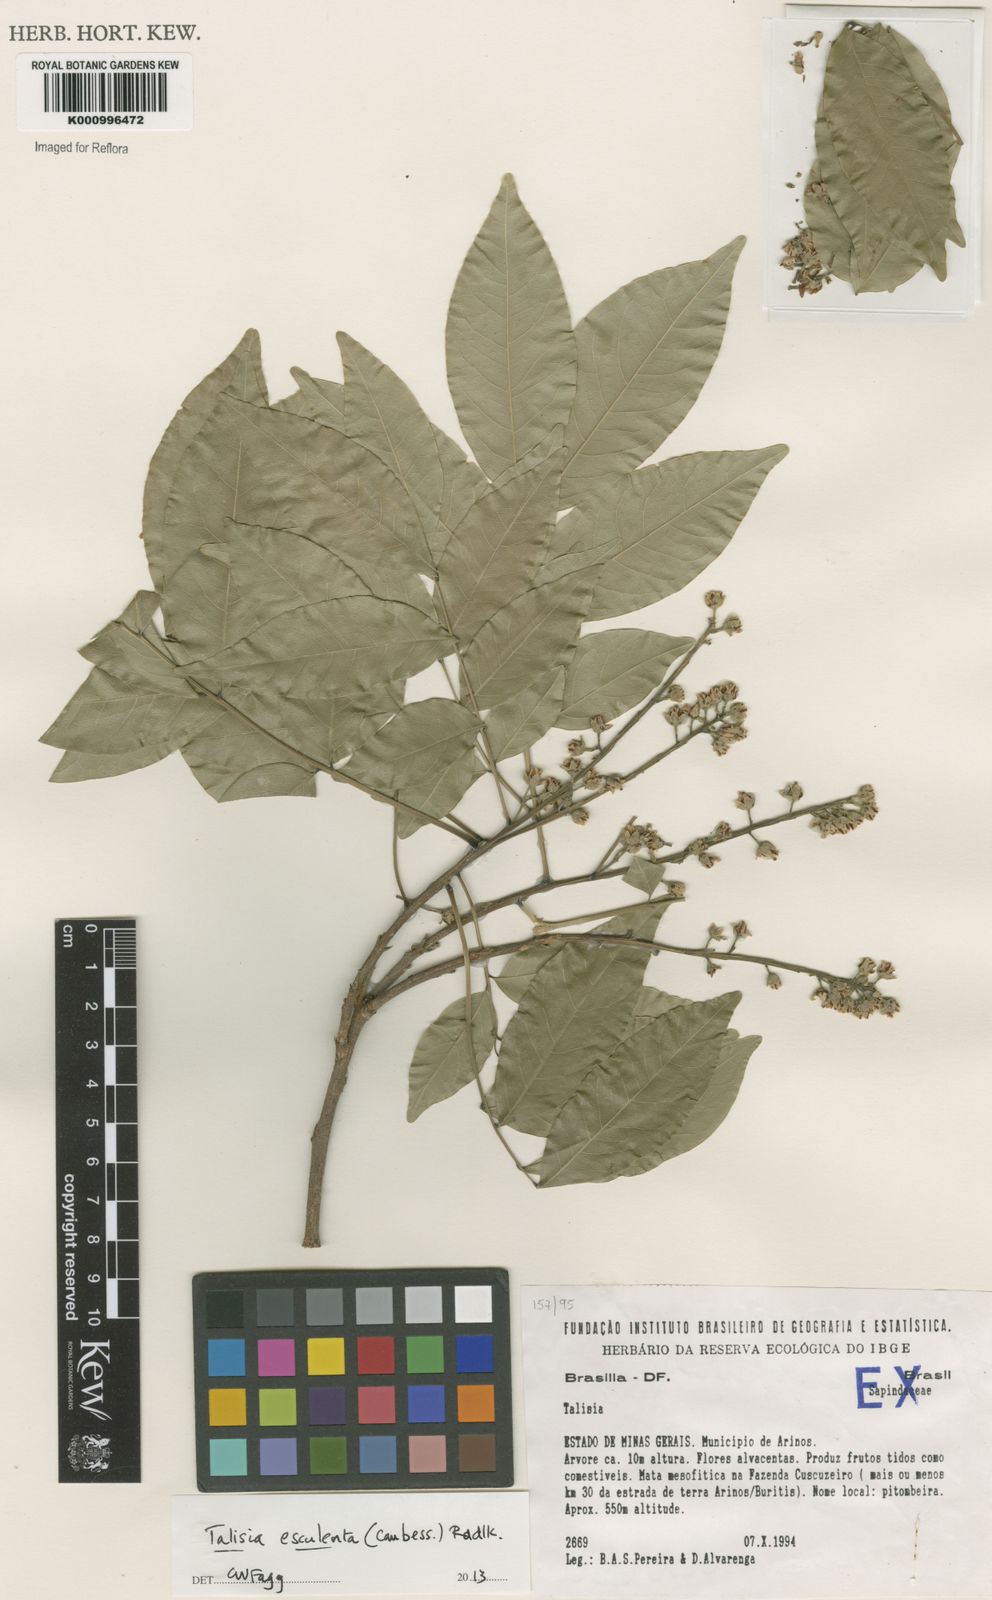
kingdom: Plantae
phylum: Tracheophyta
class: Magnoliopsida
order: Sapindales
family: Sapindaceae
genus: Talisia
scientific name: Talisia
